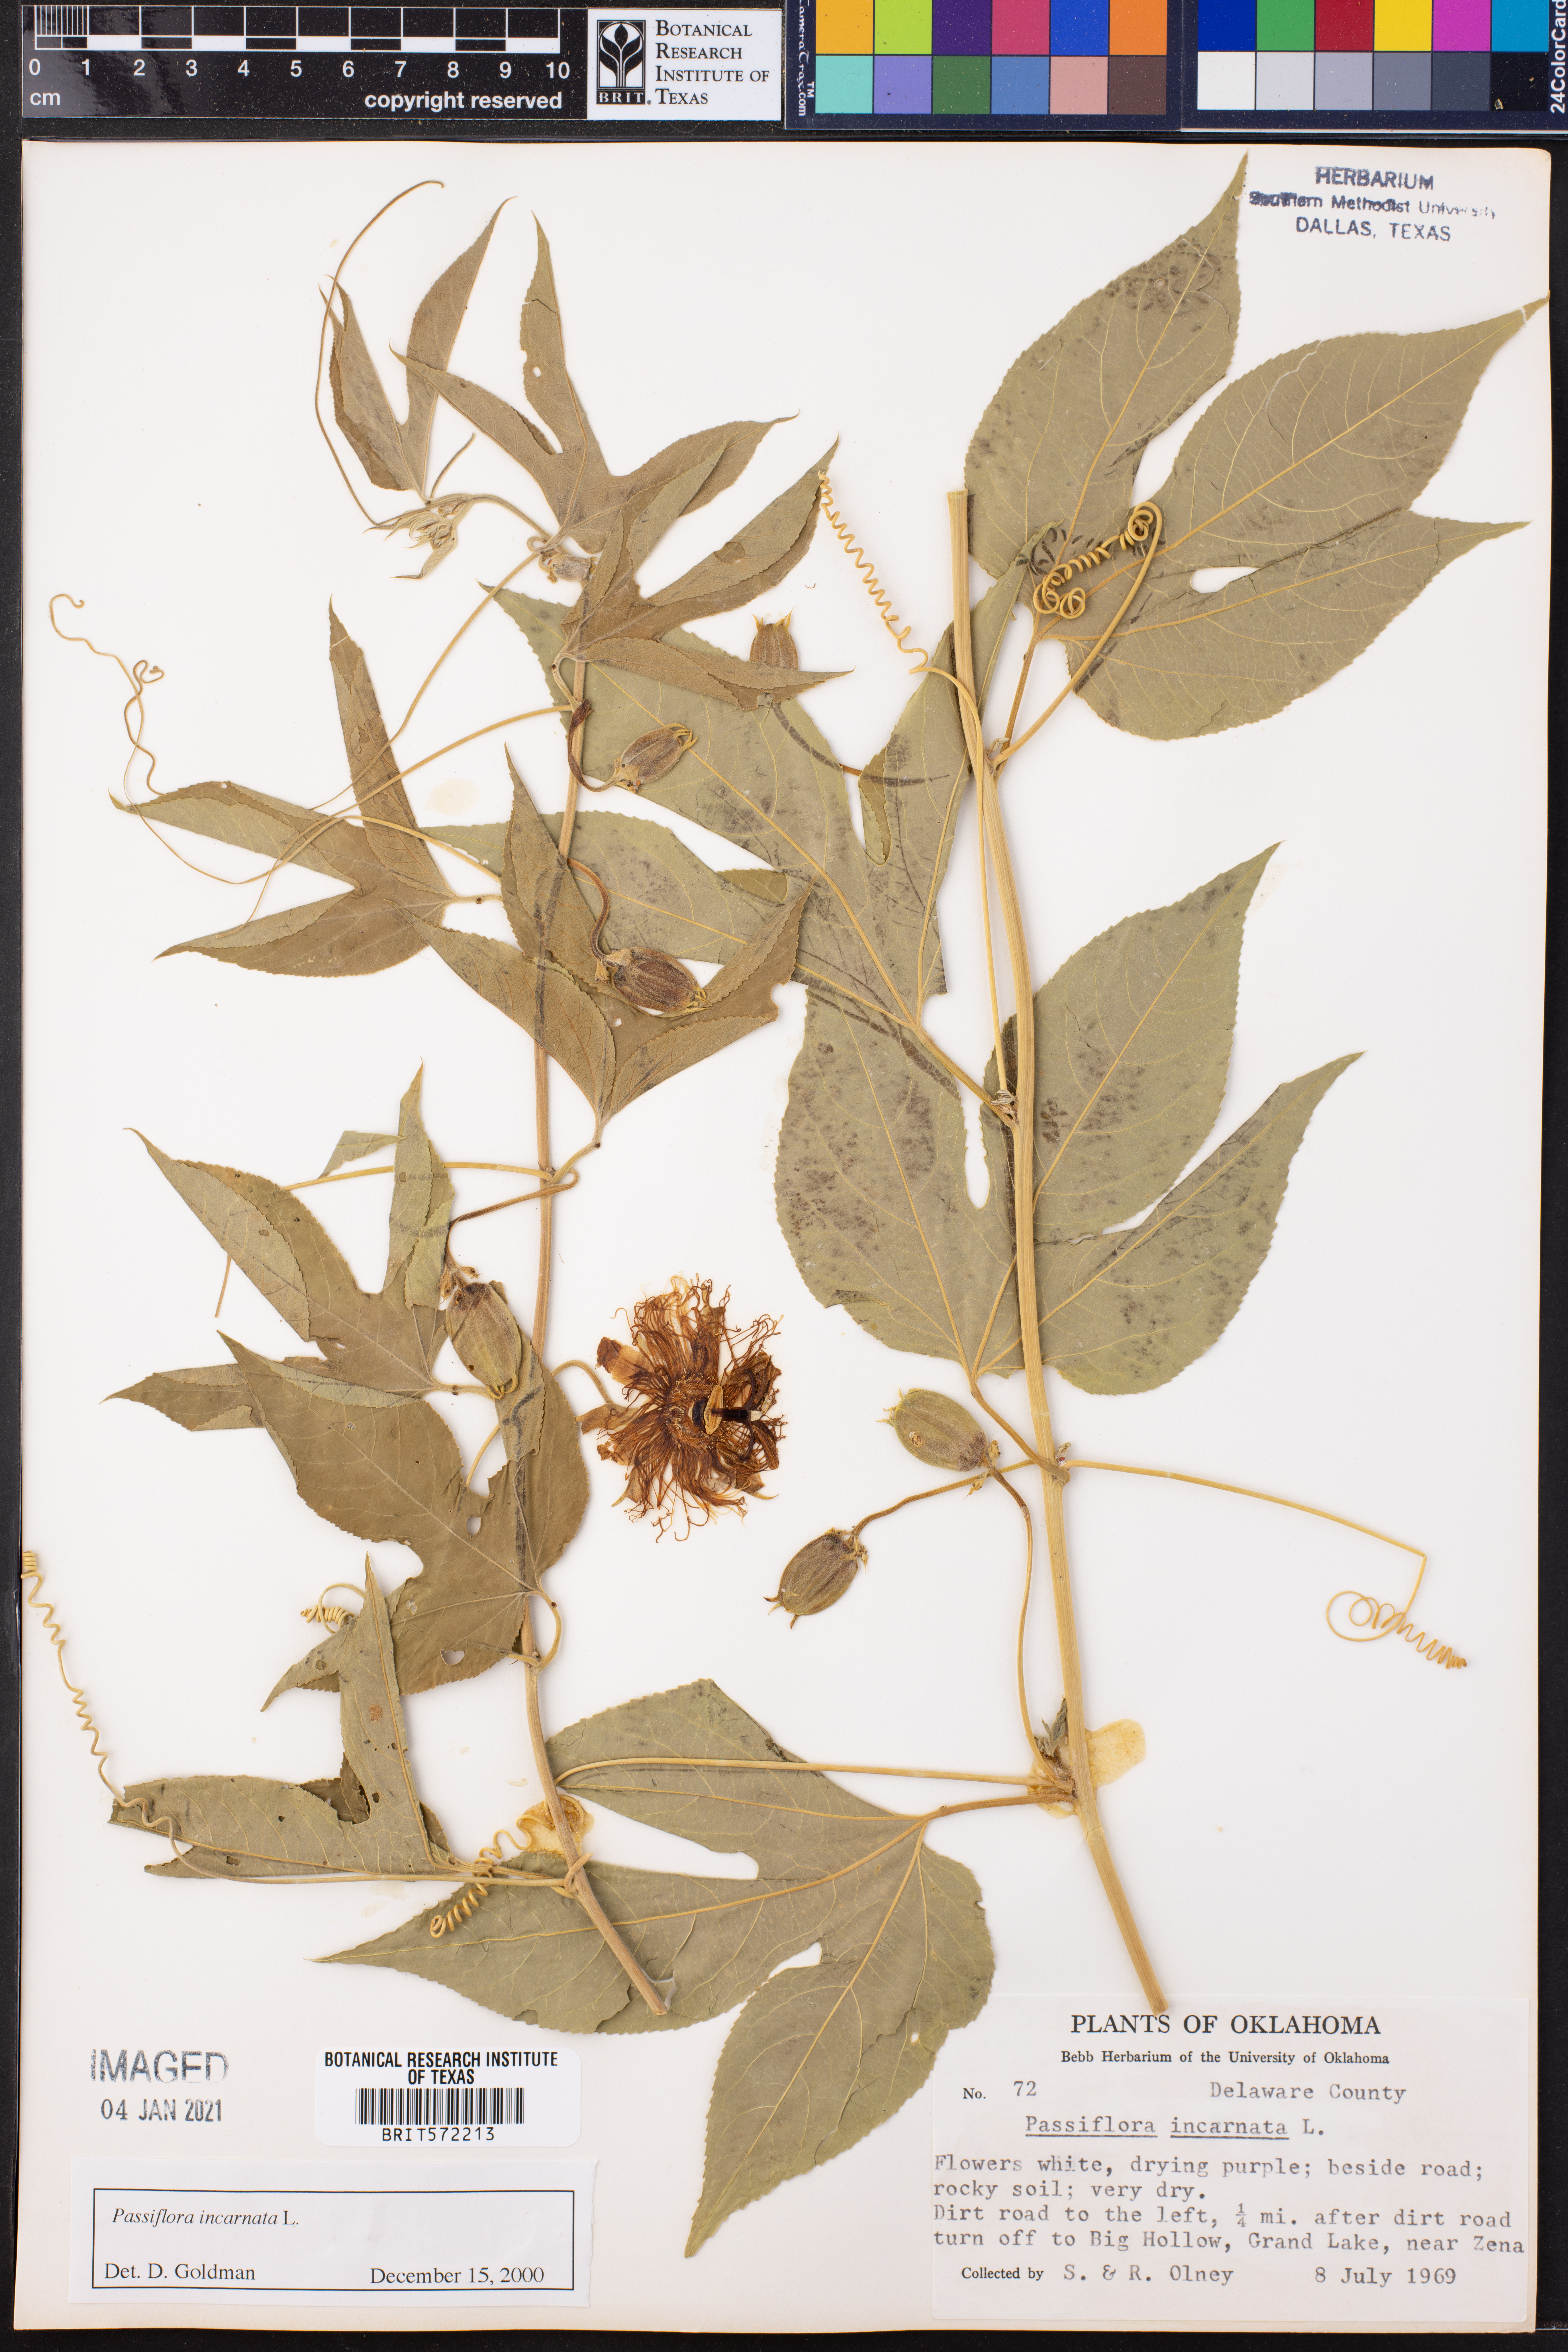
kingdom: Plantae
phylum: Tracheophyta
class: Magnoliopsida
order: Malpighiales
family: Passifloraceae
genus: Passiflora
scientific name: Passiflora incarnata
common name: Apricot-vine
